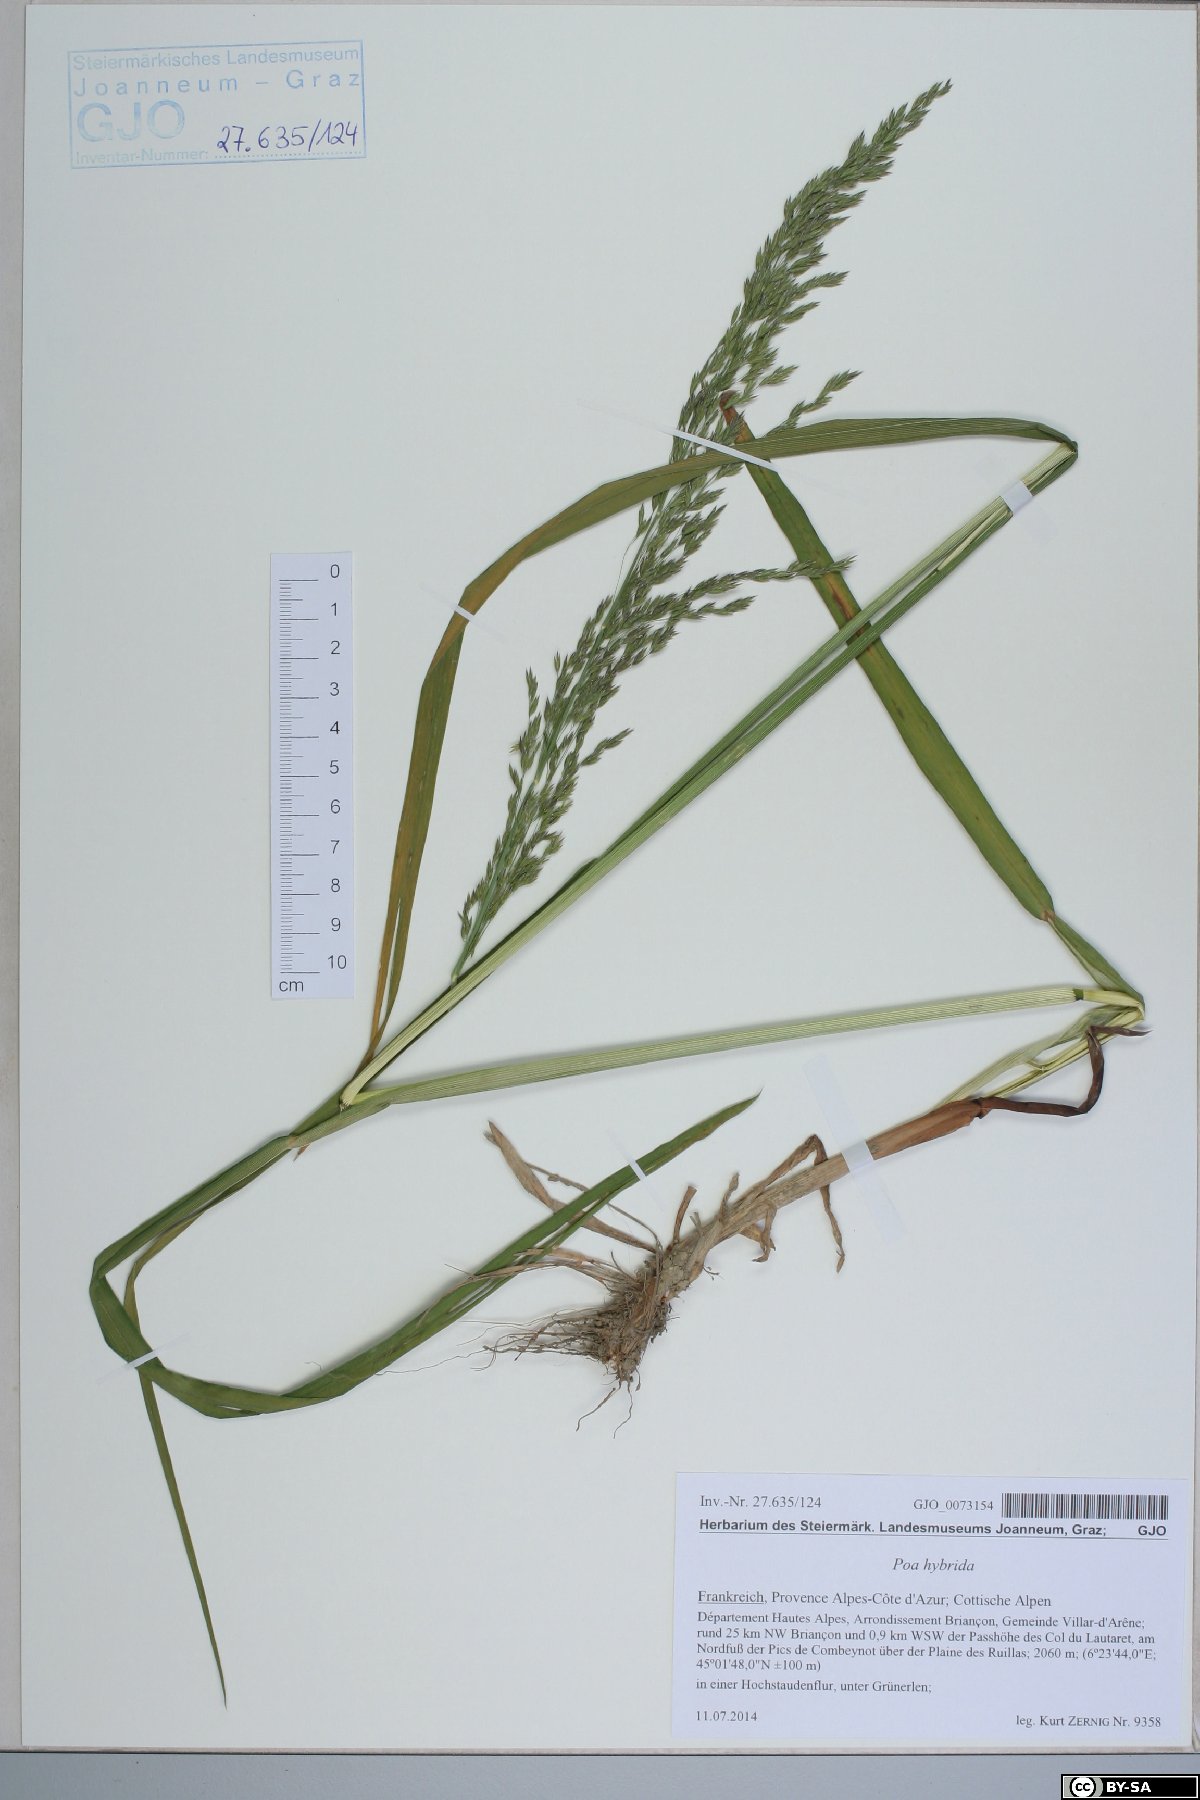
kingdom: Plantae
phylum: Tracheophyta
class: Liliopsida
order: Poales
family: Poaceae
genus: Poa
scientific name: Poa hybrida
